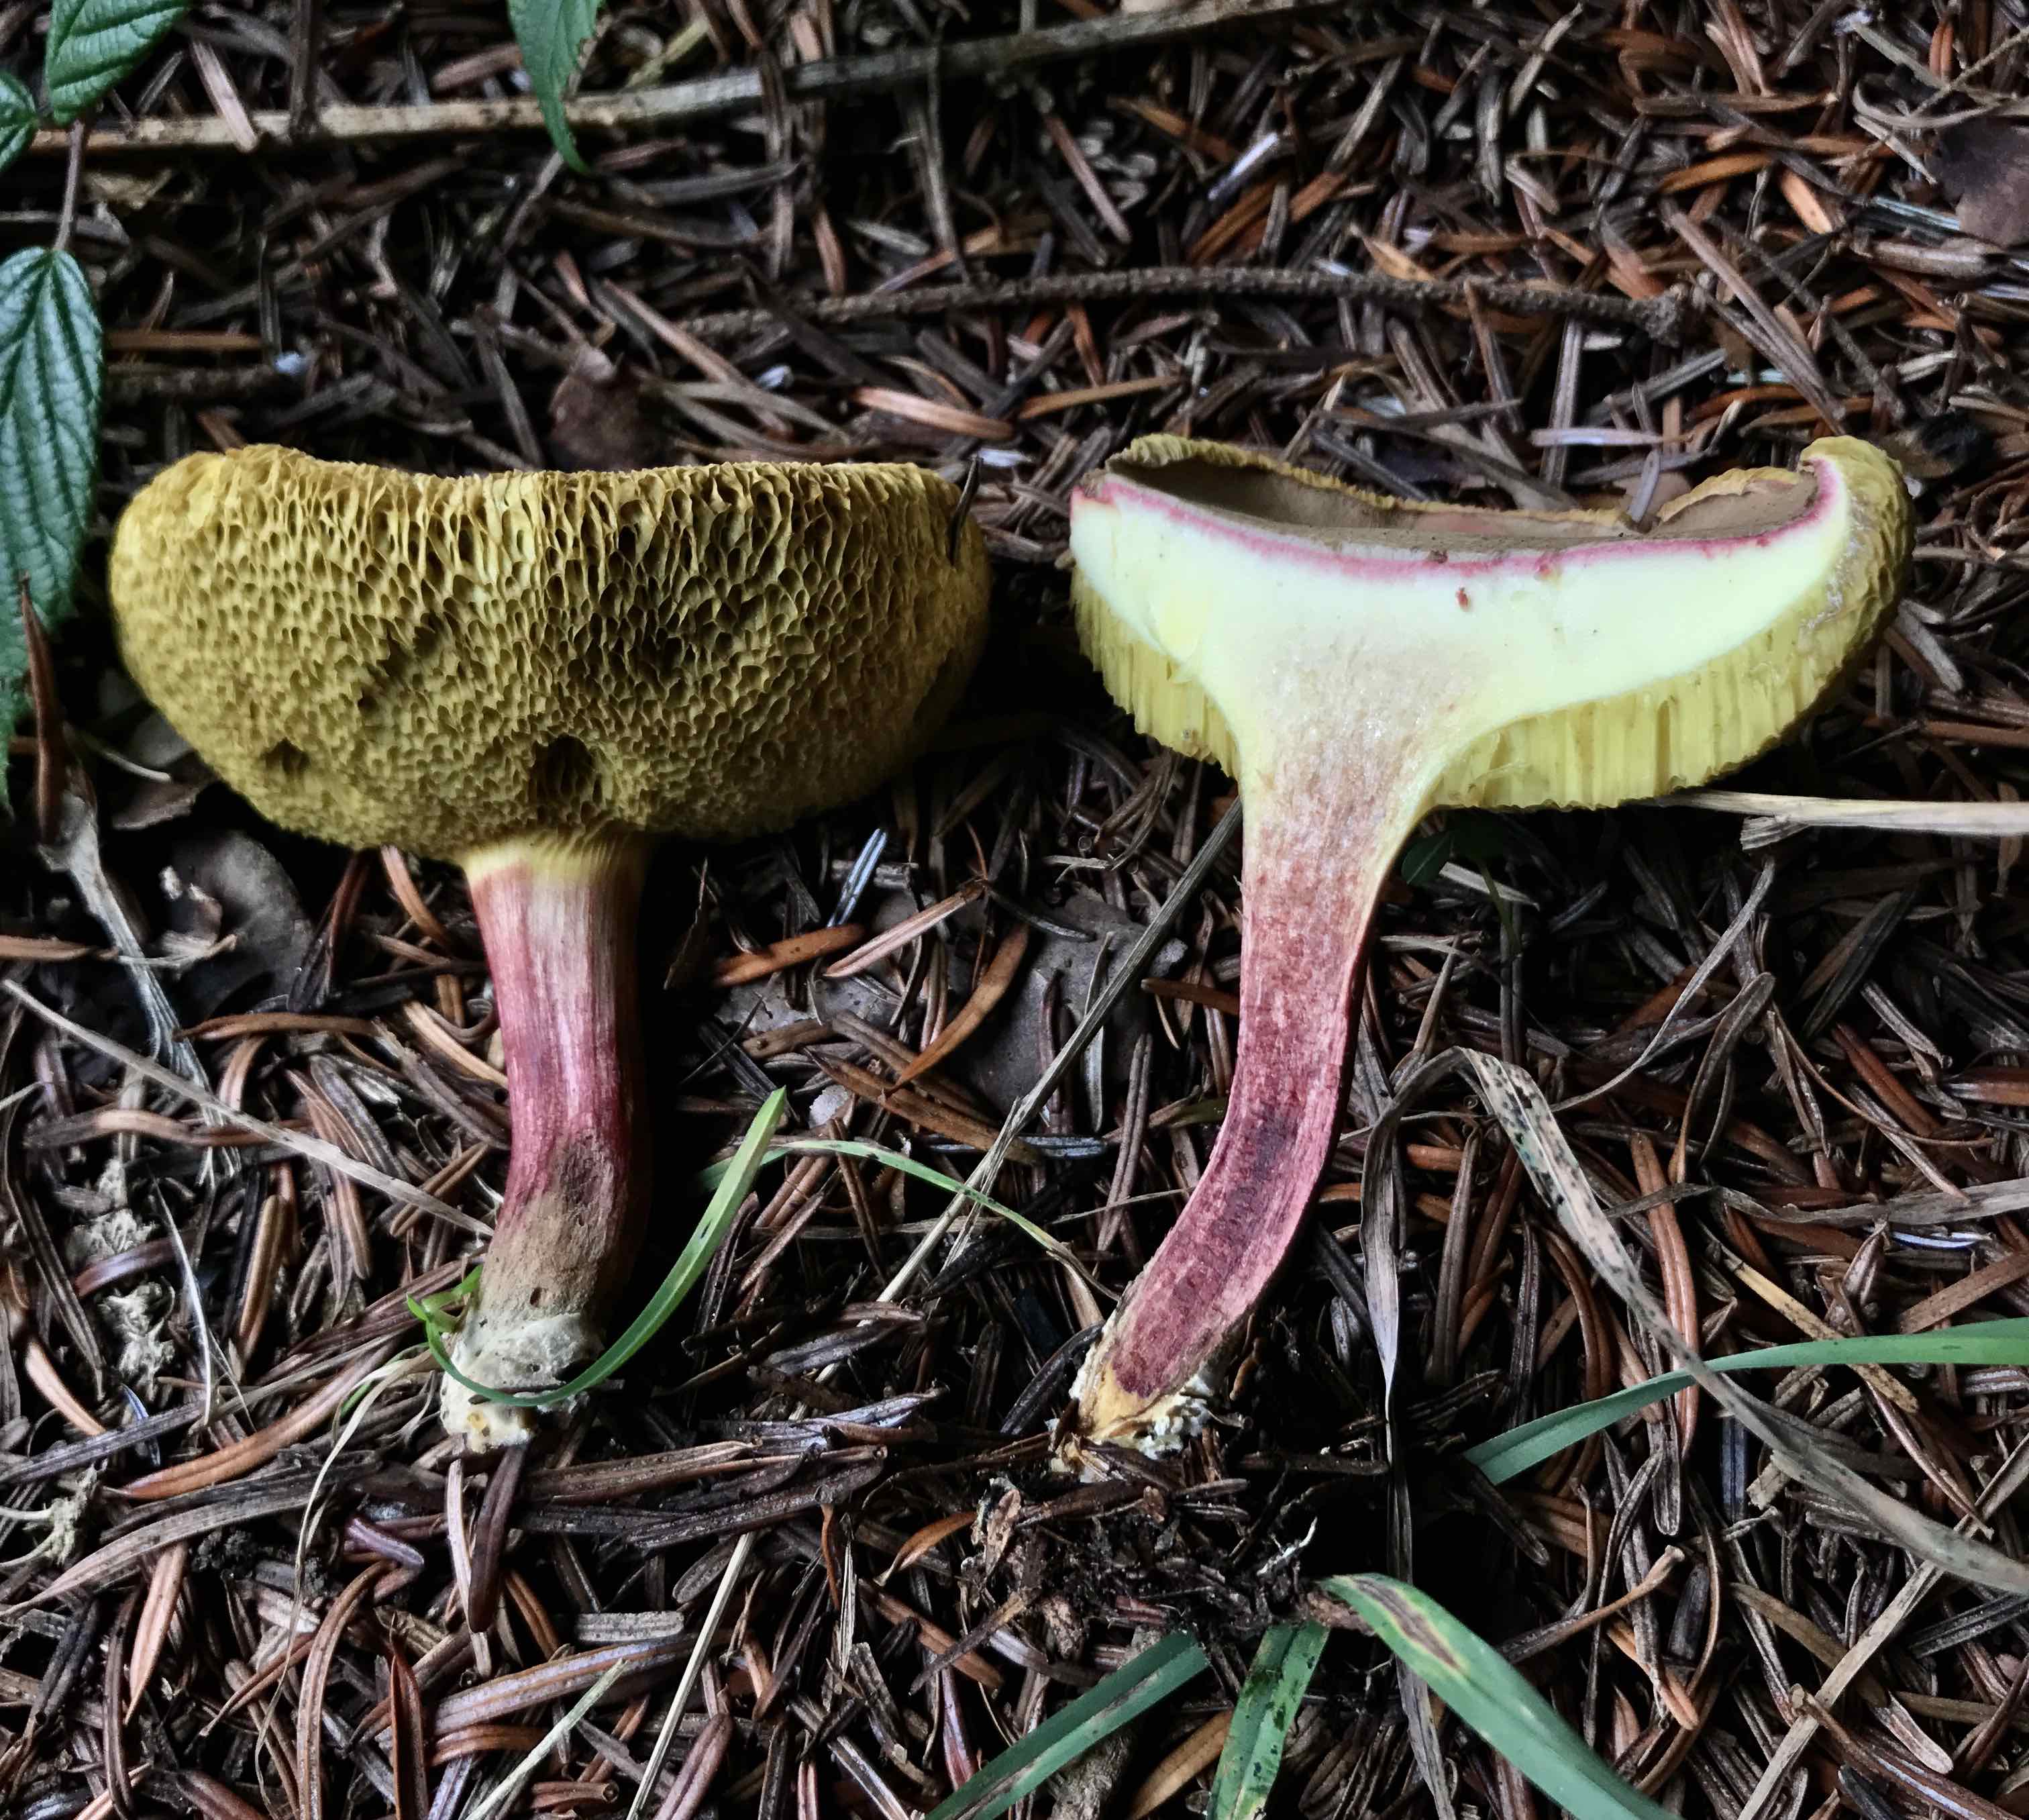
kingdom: Fungi
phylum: Basidiomycota
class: Agaricomycetes
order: Boletales
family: Boletaceae
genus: Xerocomellus
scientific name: Xerocomellus chrysenteron
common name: rødsprukken rørhat
